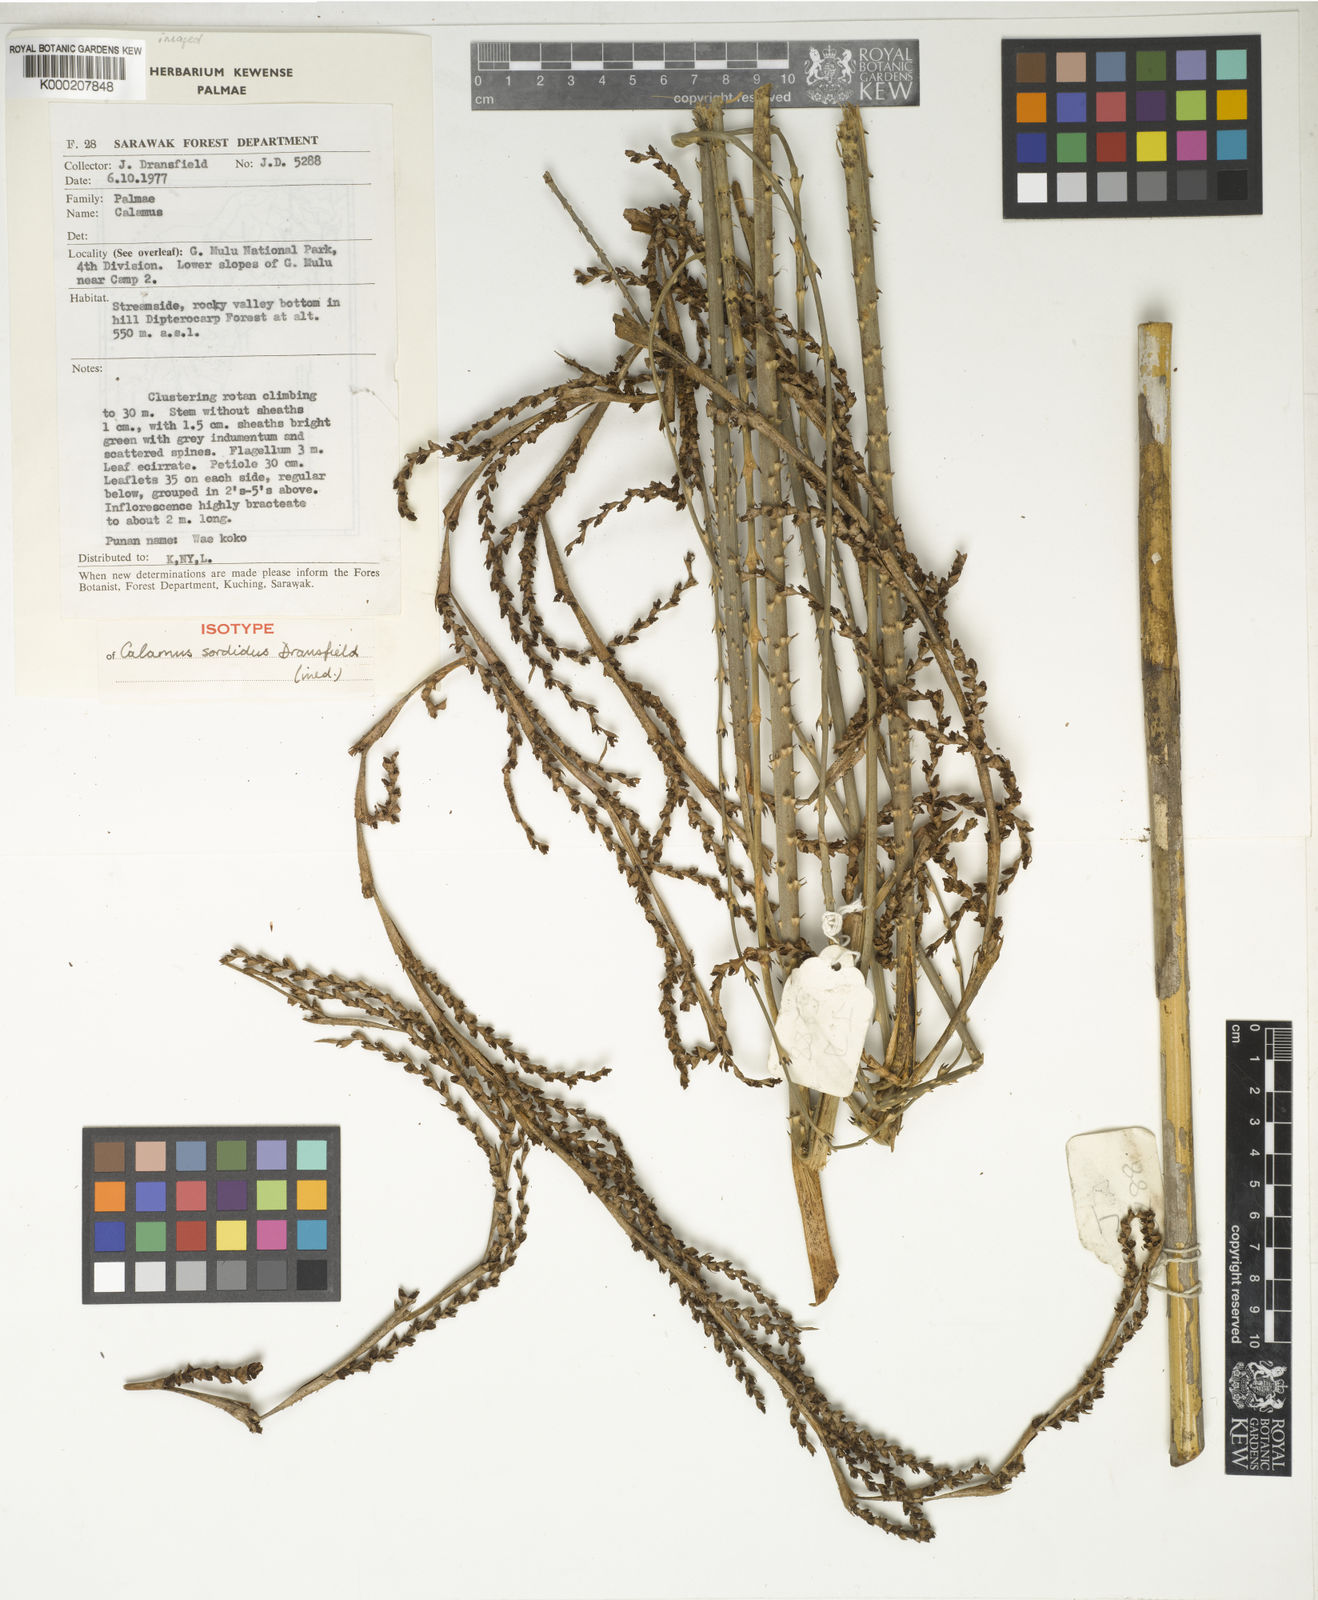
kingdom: Plantae
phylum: Tracheophyta
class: Liliopsida
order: Arecales
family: Arecaceae
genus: Calamus
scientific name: Calamus sordidus
